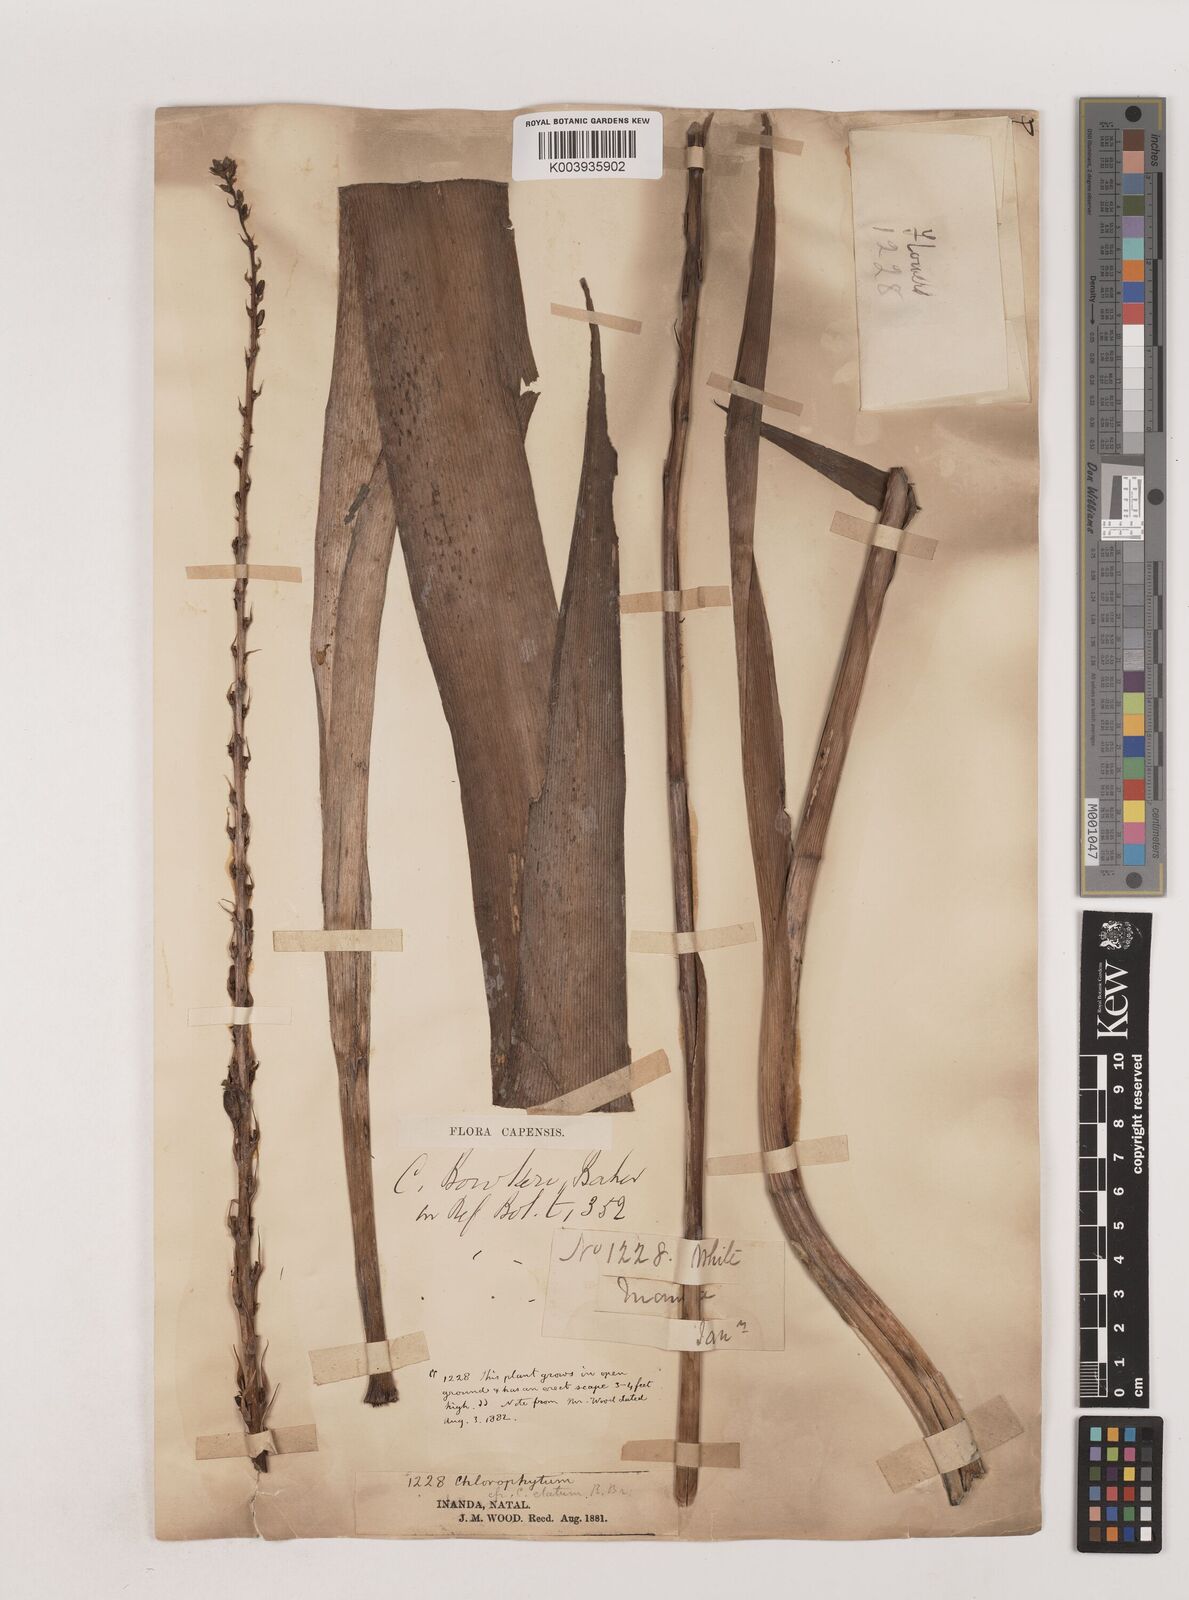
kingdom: Plantae
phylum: Tracheophyta
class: Liliopsida
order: Asparagales
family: Asparagaceae
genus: Chlorophytum
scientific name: Chlorophytum bowkeri
